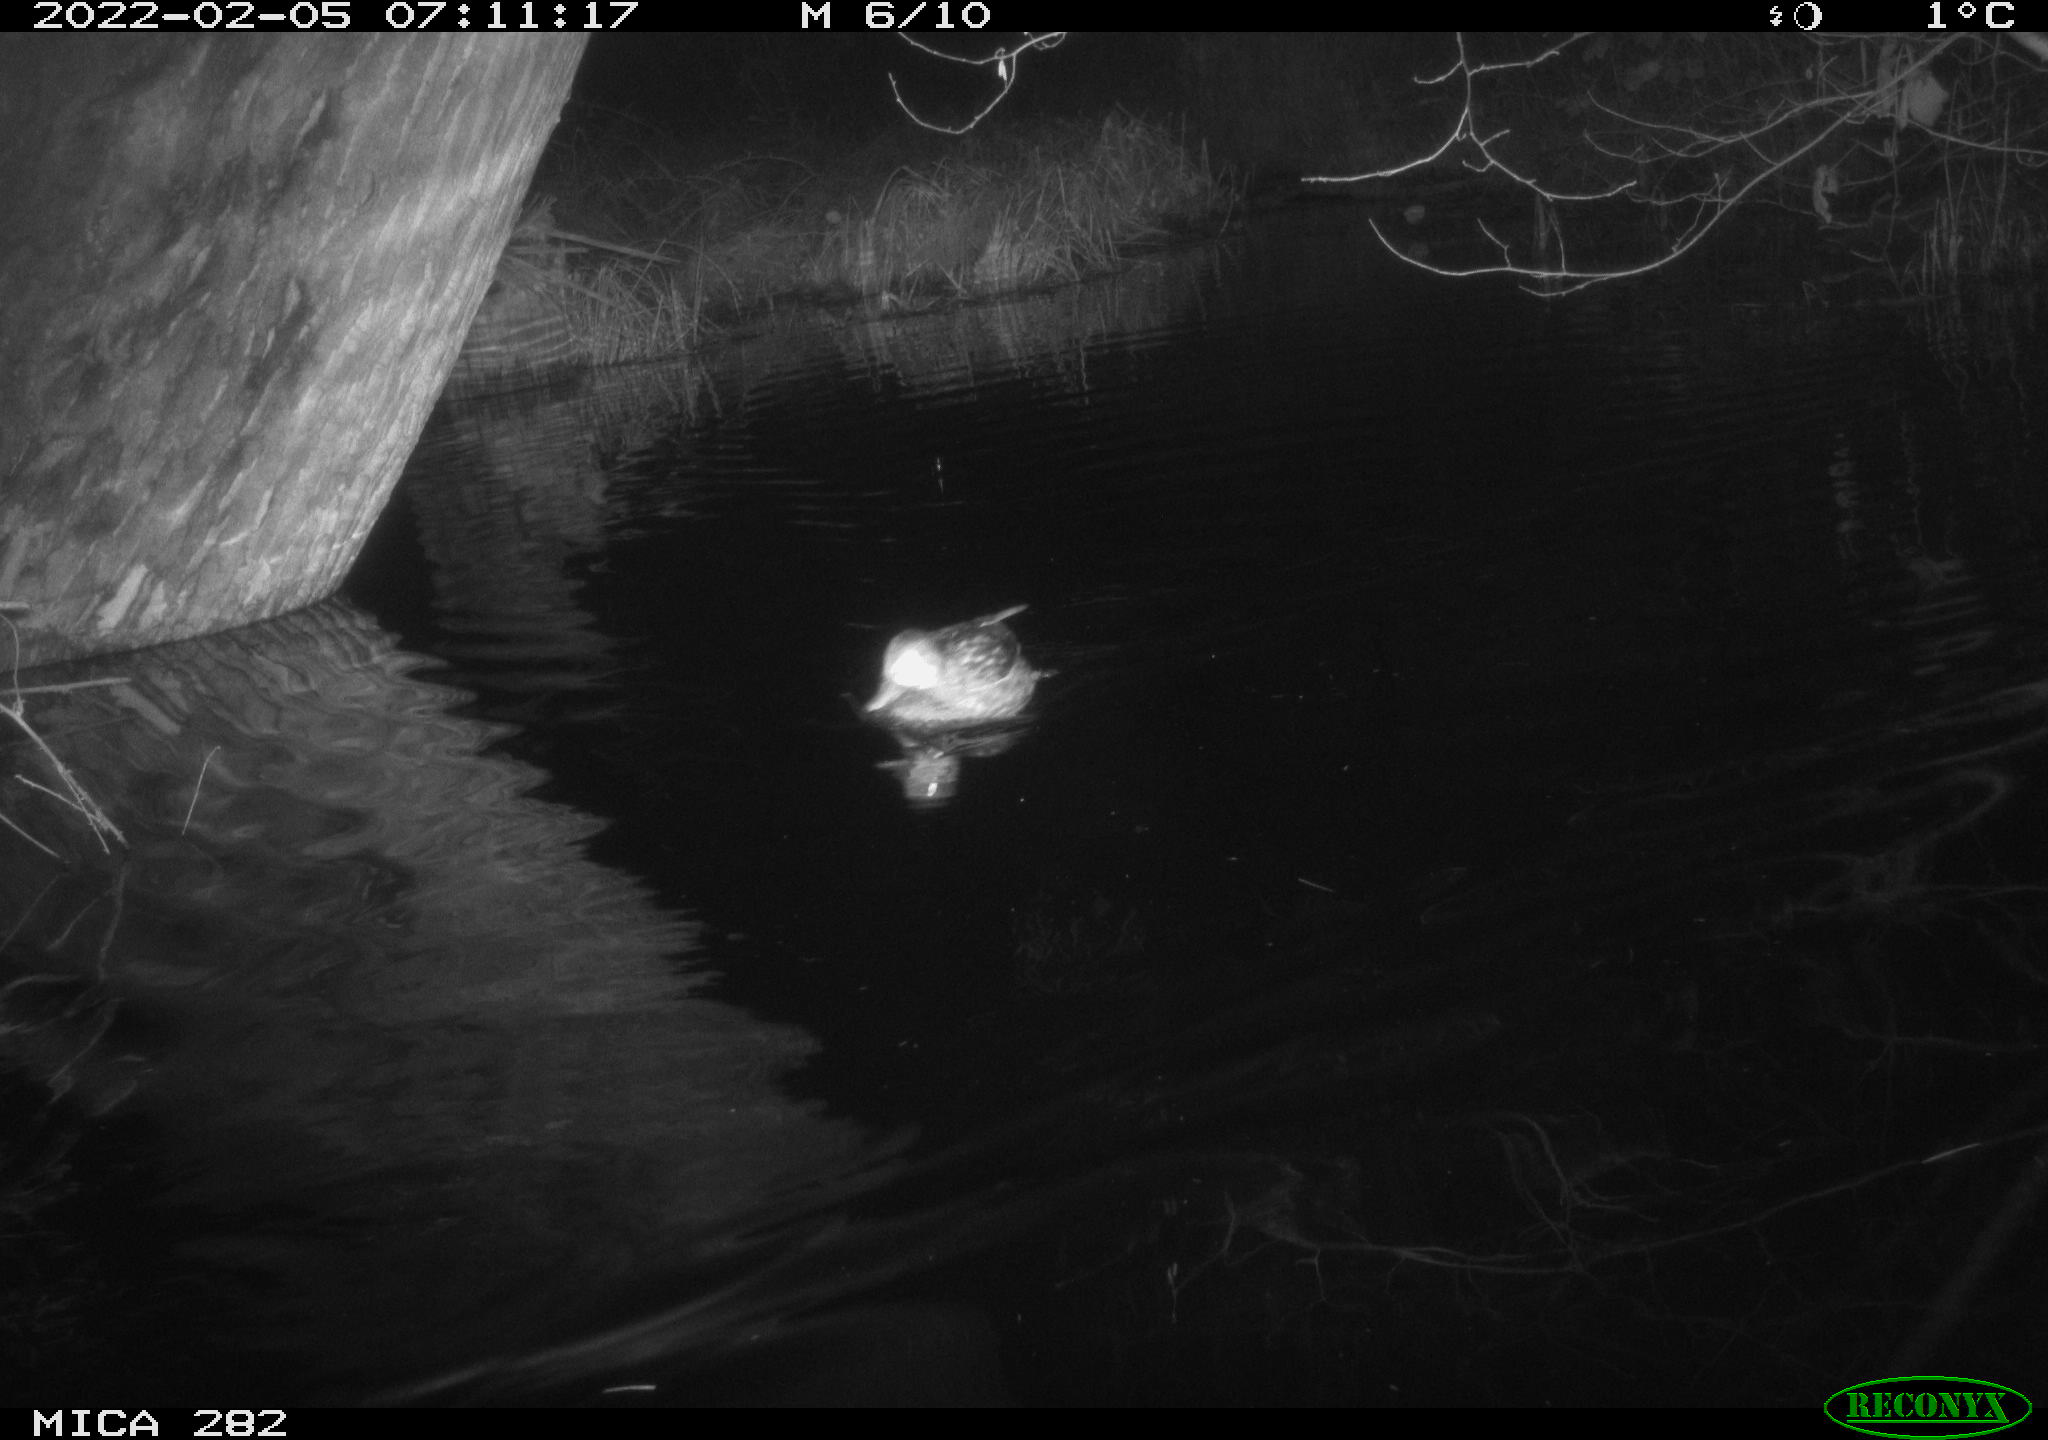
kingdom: Animalia
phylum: Chordata
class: Aves
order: Anseriformes
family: Anatidae
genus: Mareca
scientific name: Mareca strepera
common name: Gadwall
